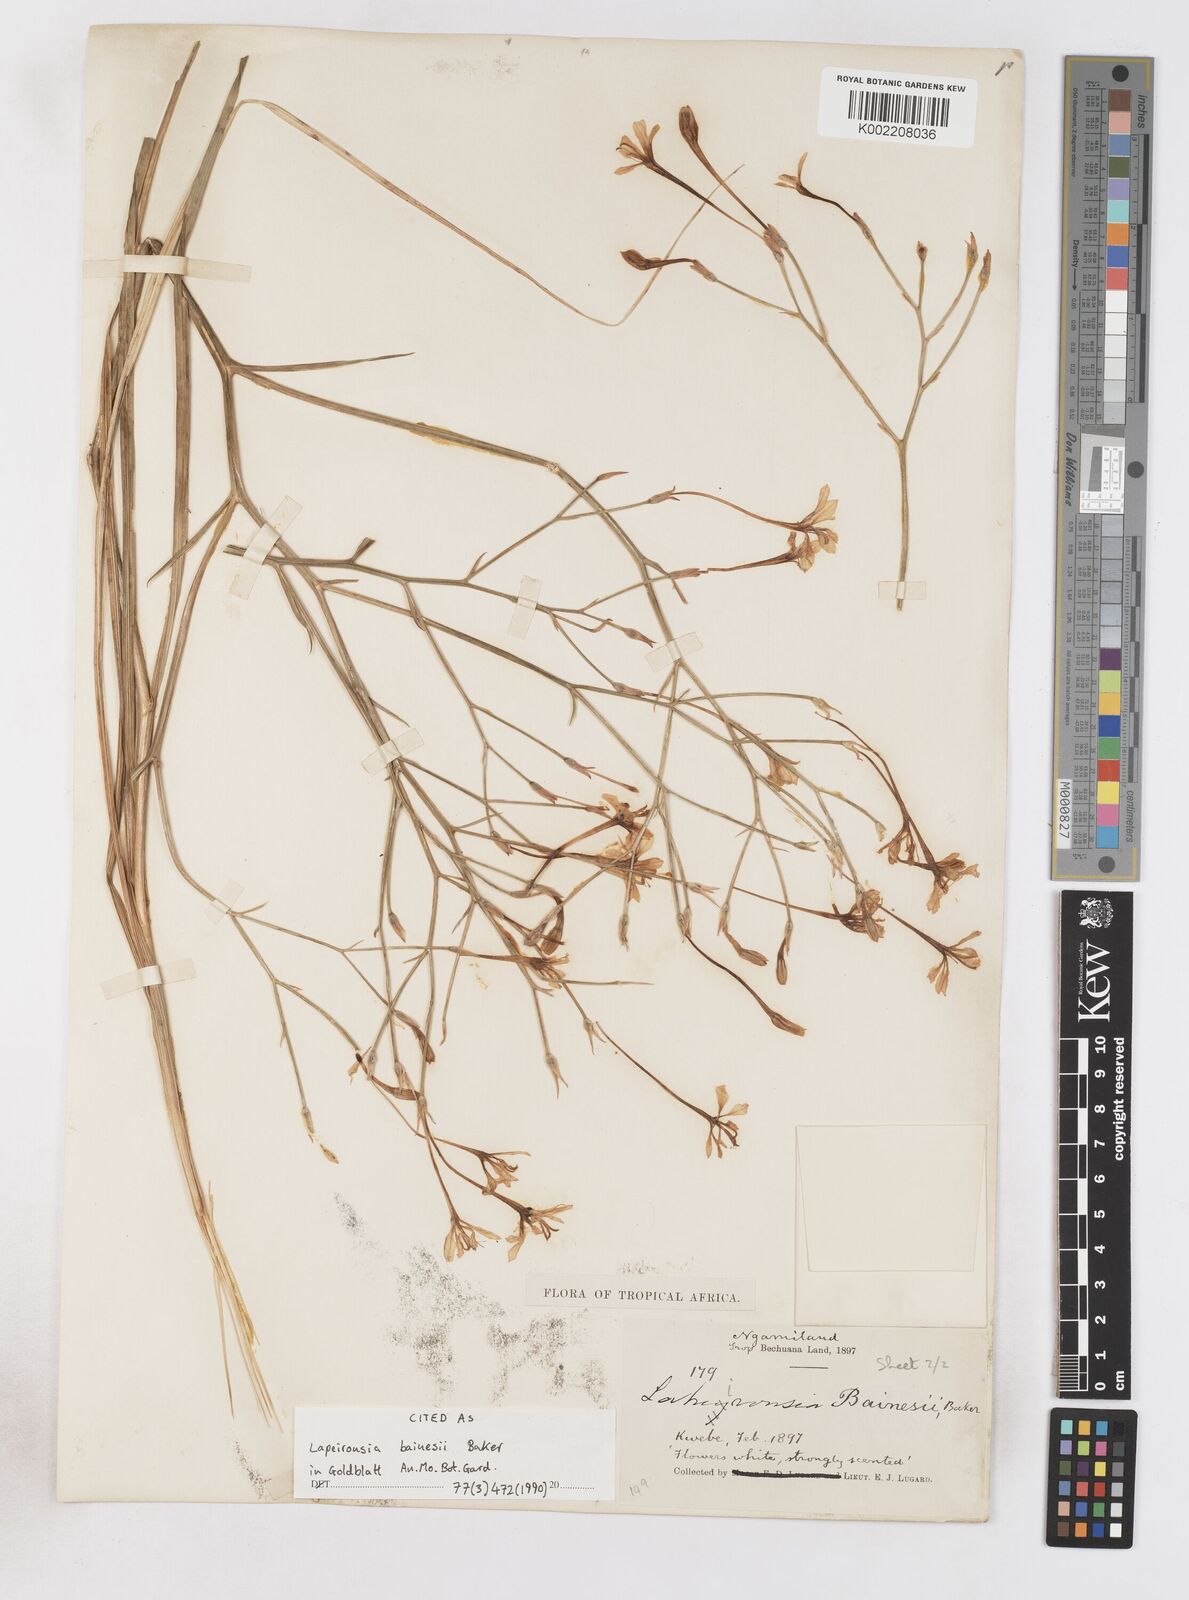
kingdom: Plantae
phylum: Tracheophyta
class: Liliopsida
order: Asparagales
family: Iridaceae
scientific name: Iridaceae
